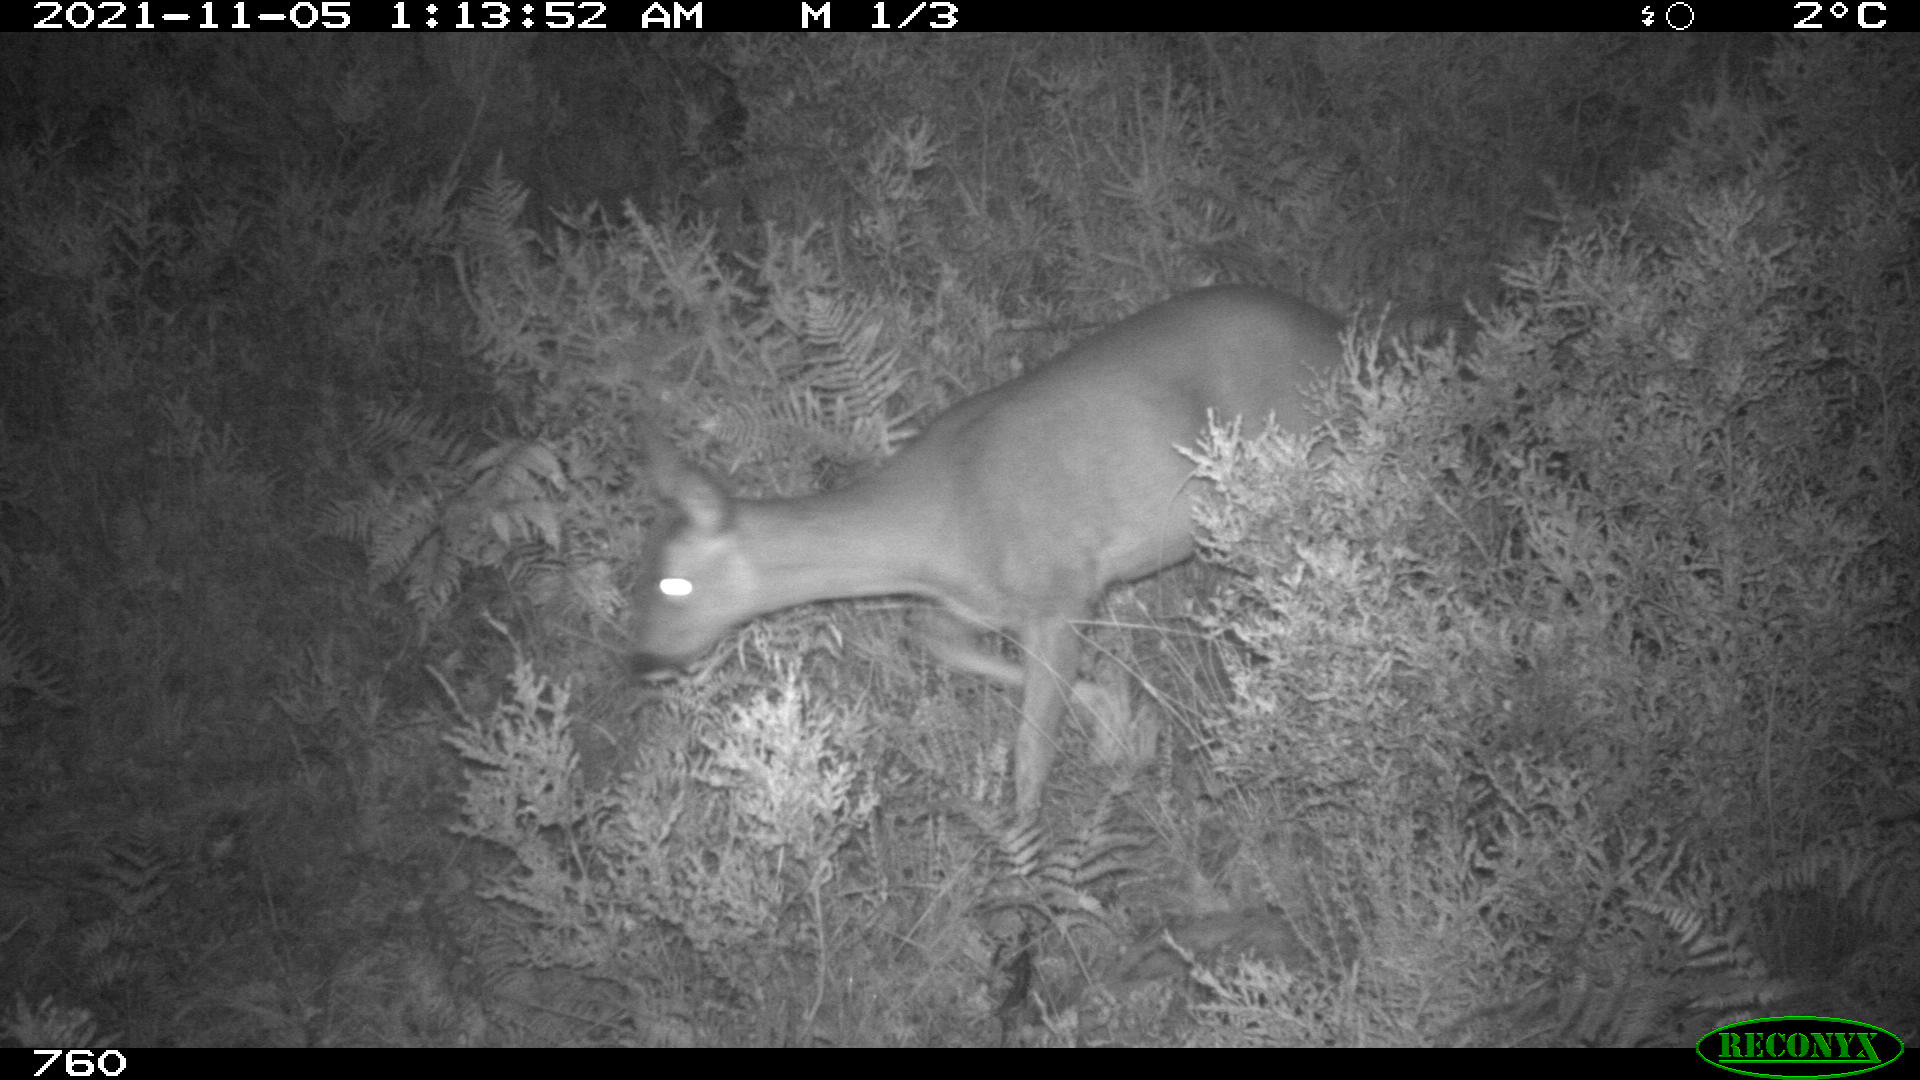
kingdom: Animalia
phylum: Chordata
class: Mammalia
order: Artiodactyla
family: Cervidae
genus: Capreolus
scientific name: Capreolus capreolus
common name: Western roe deer
